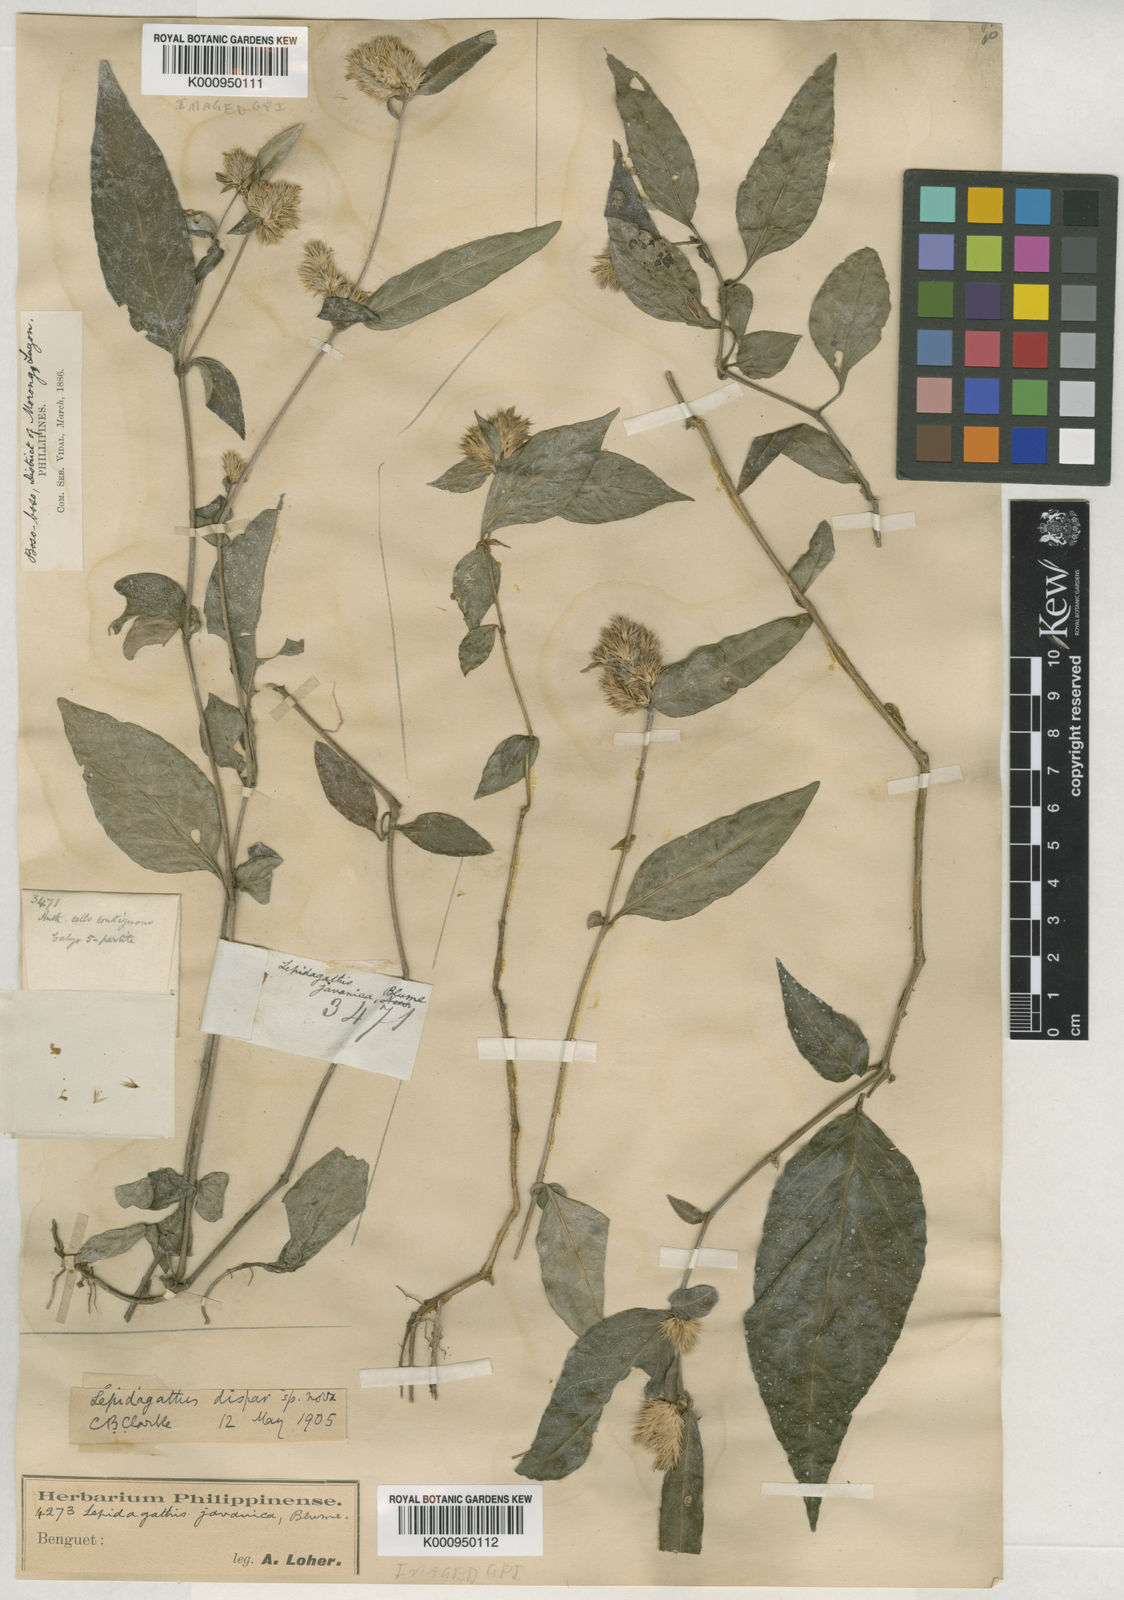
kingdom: Plantae
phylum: Tracheophyta
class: Magnoliopsida
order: Lamiales
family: Acanthaceae
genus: Lepidagathis
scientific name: Lepidagathis dispar
